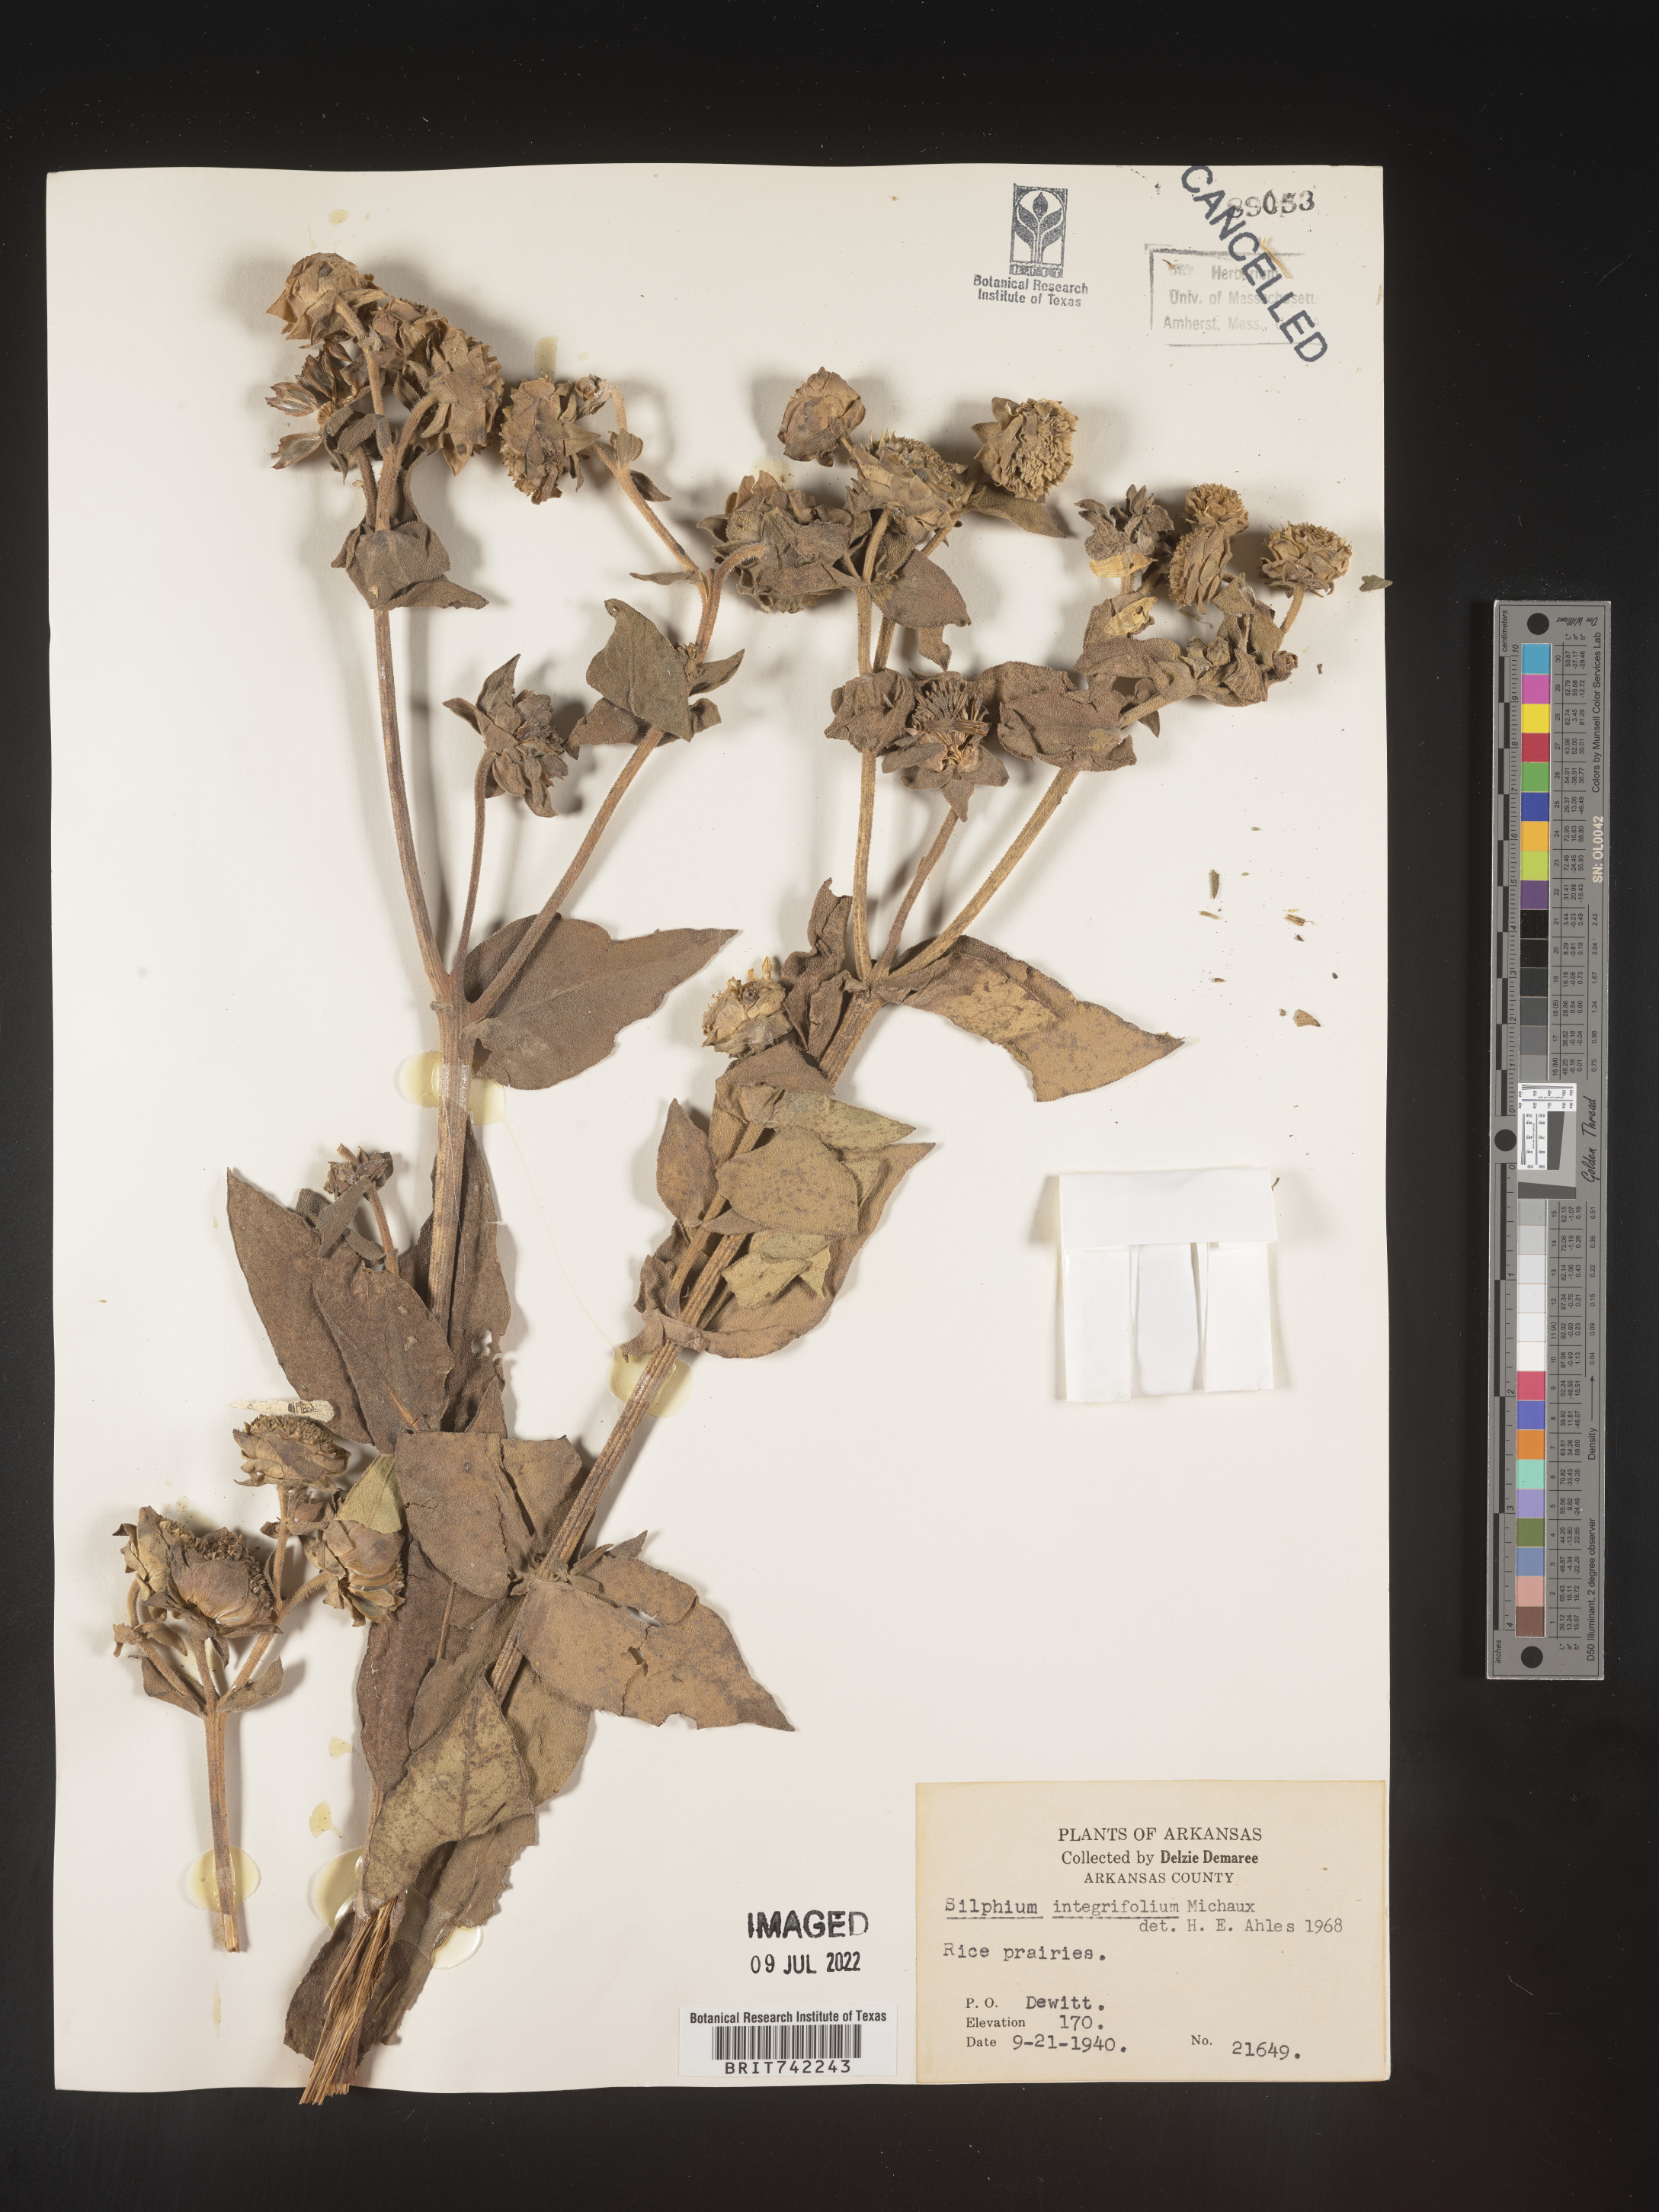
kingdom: Plantae
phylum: Tracheophyta
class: Magnoliopsida
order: Asterales
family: Asteraceae
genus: Silphium
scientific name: Silphium integrifolium
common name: Whole-leaf rosinweed
